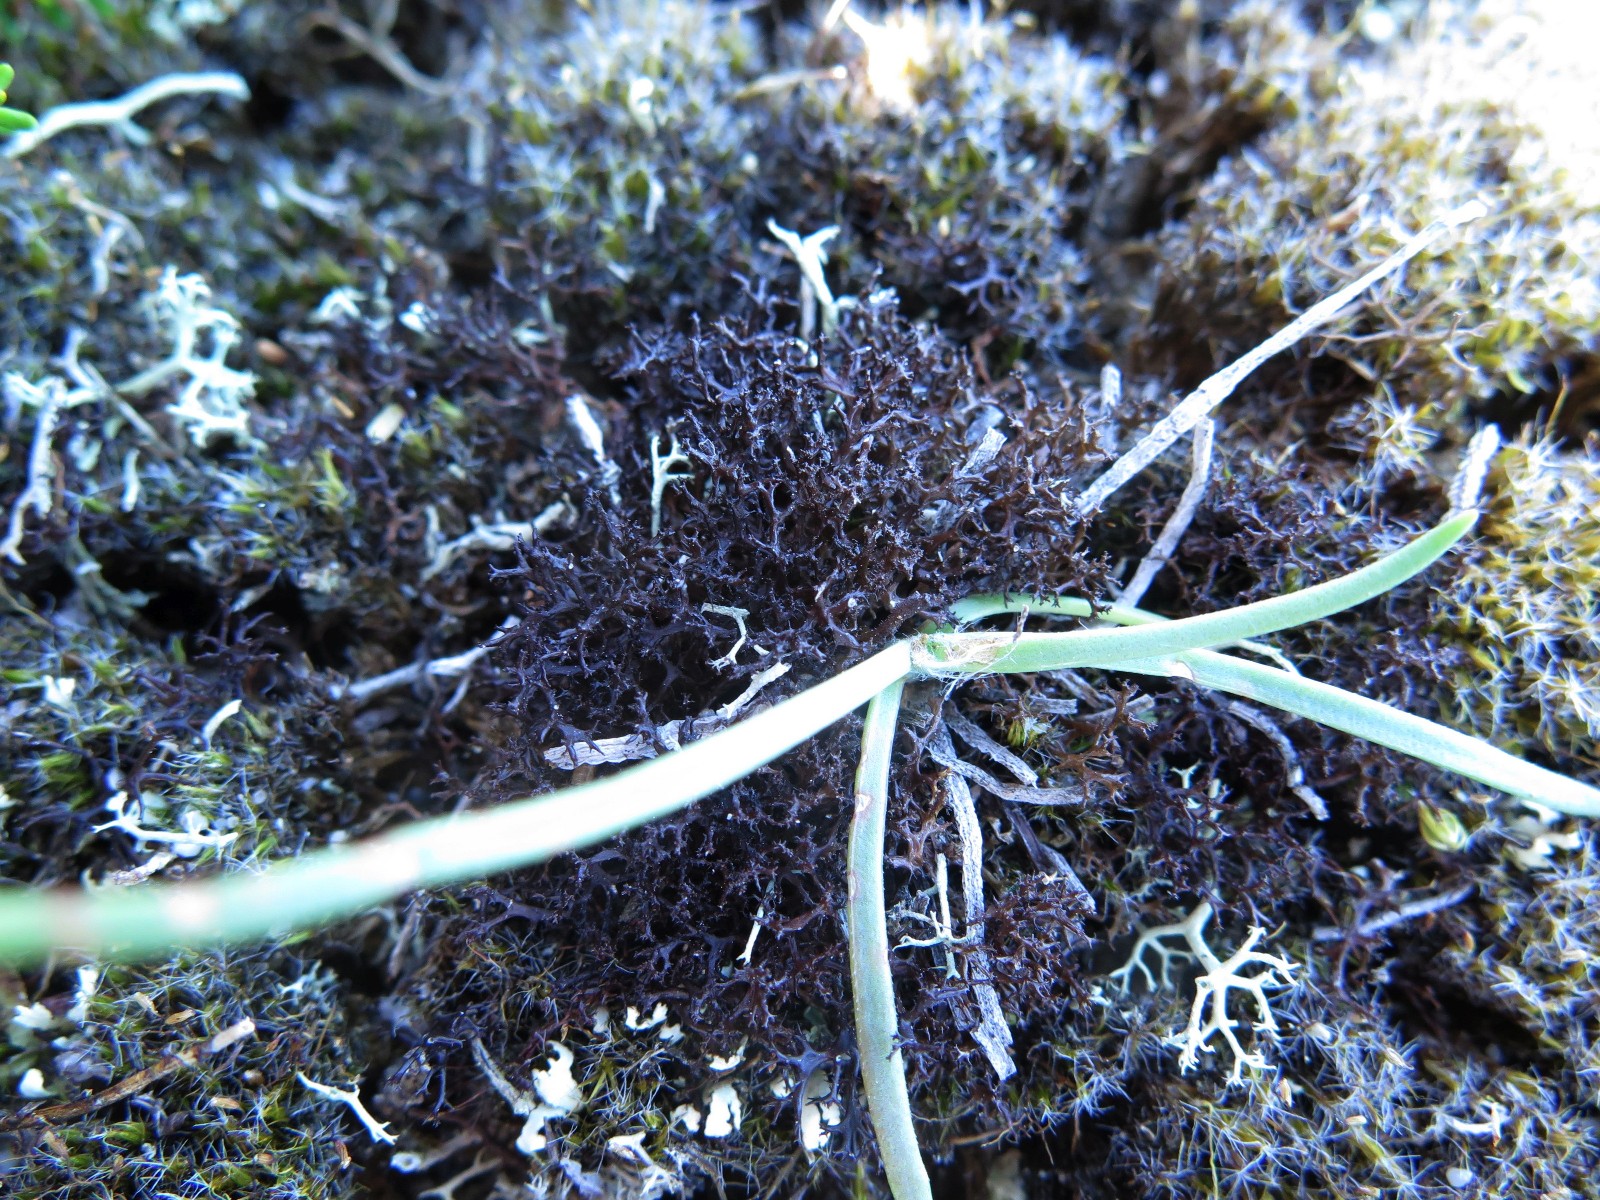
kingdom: Fungi
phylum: Ascomycota
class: Lecanoromycetes
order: Lecanorales
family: Parmeliaceae
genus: Cetraria
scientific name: Cetraria muricata
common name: tue-tjørnelav
